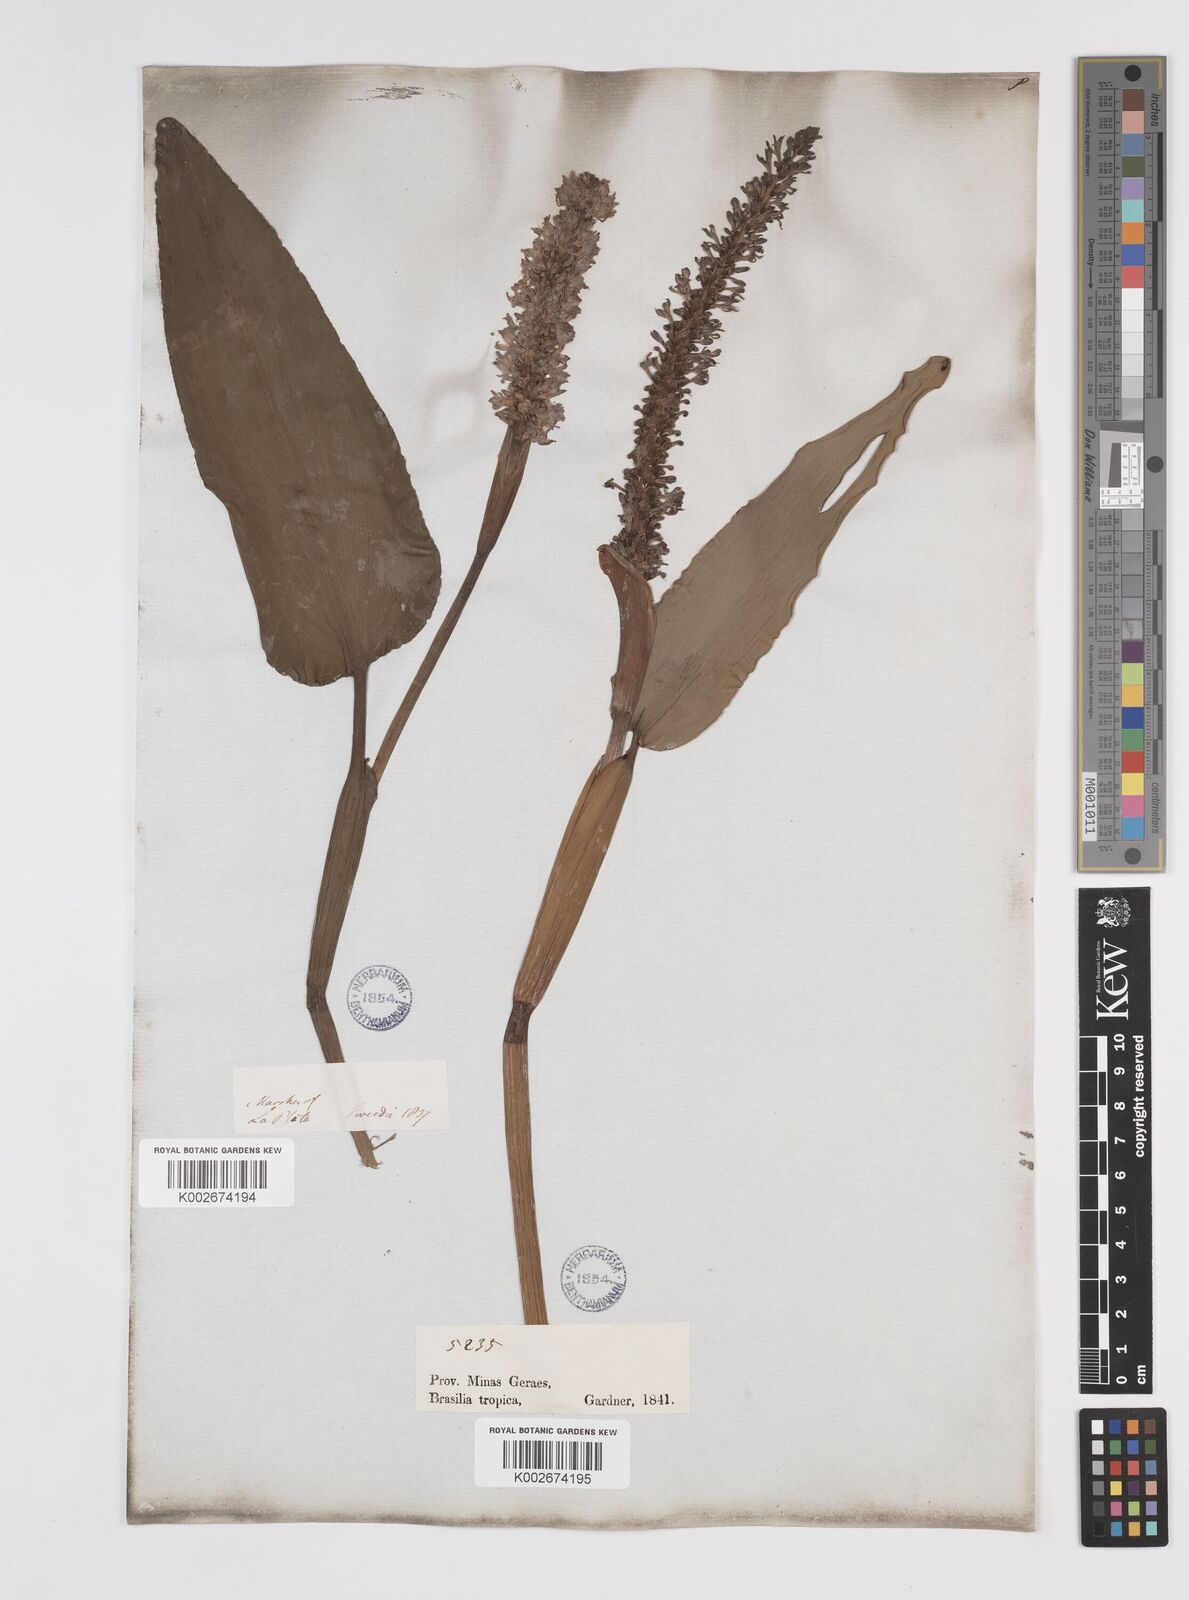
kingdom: Plantae
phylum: Tracheophyta
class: Liliopsida
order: Commelinales
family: Pontederiaceae
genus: Pontederia
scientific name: Pontederia
